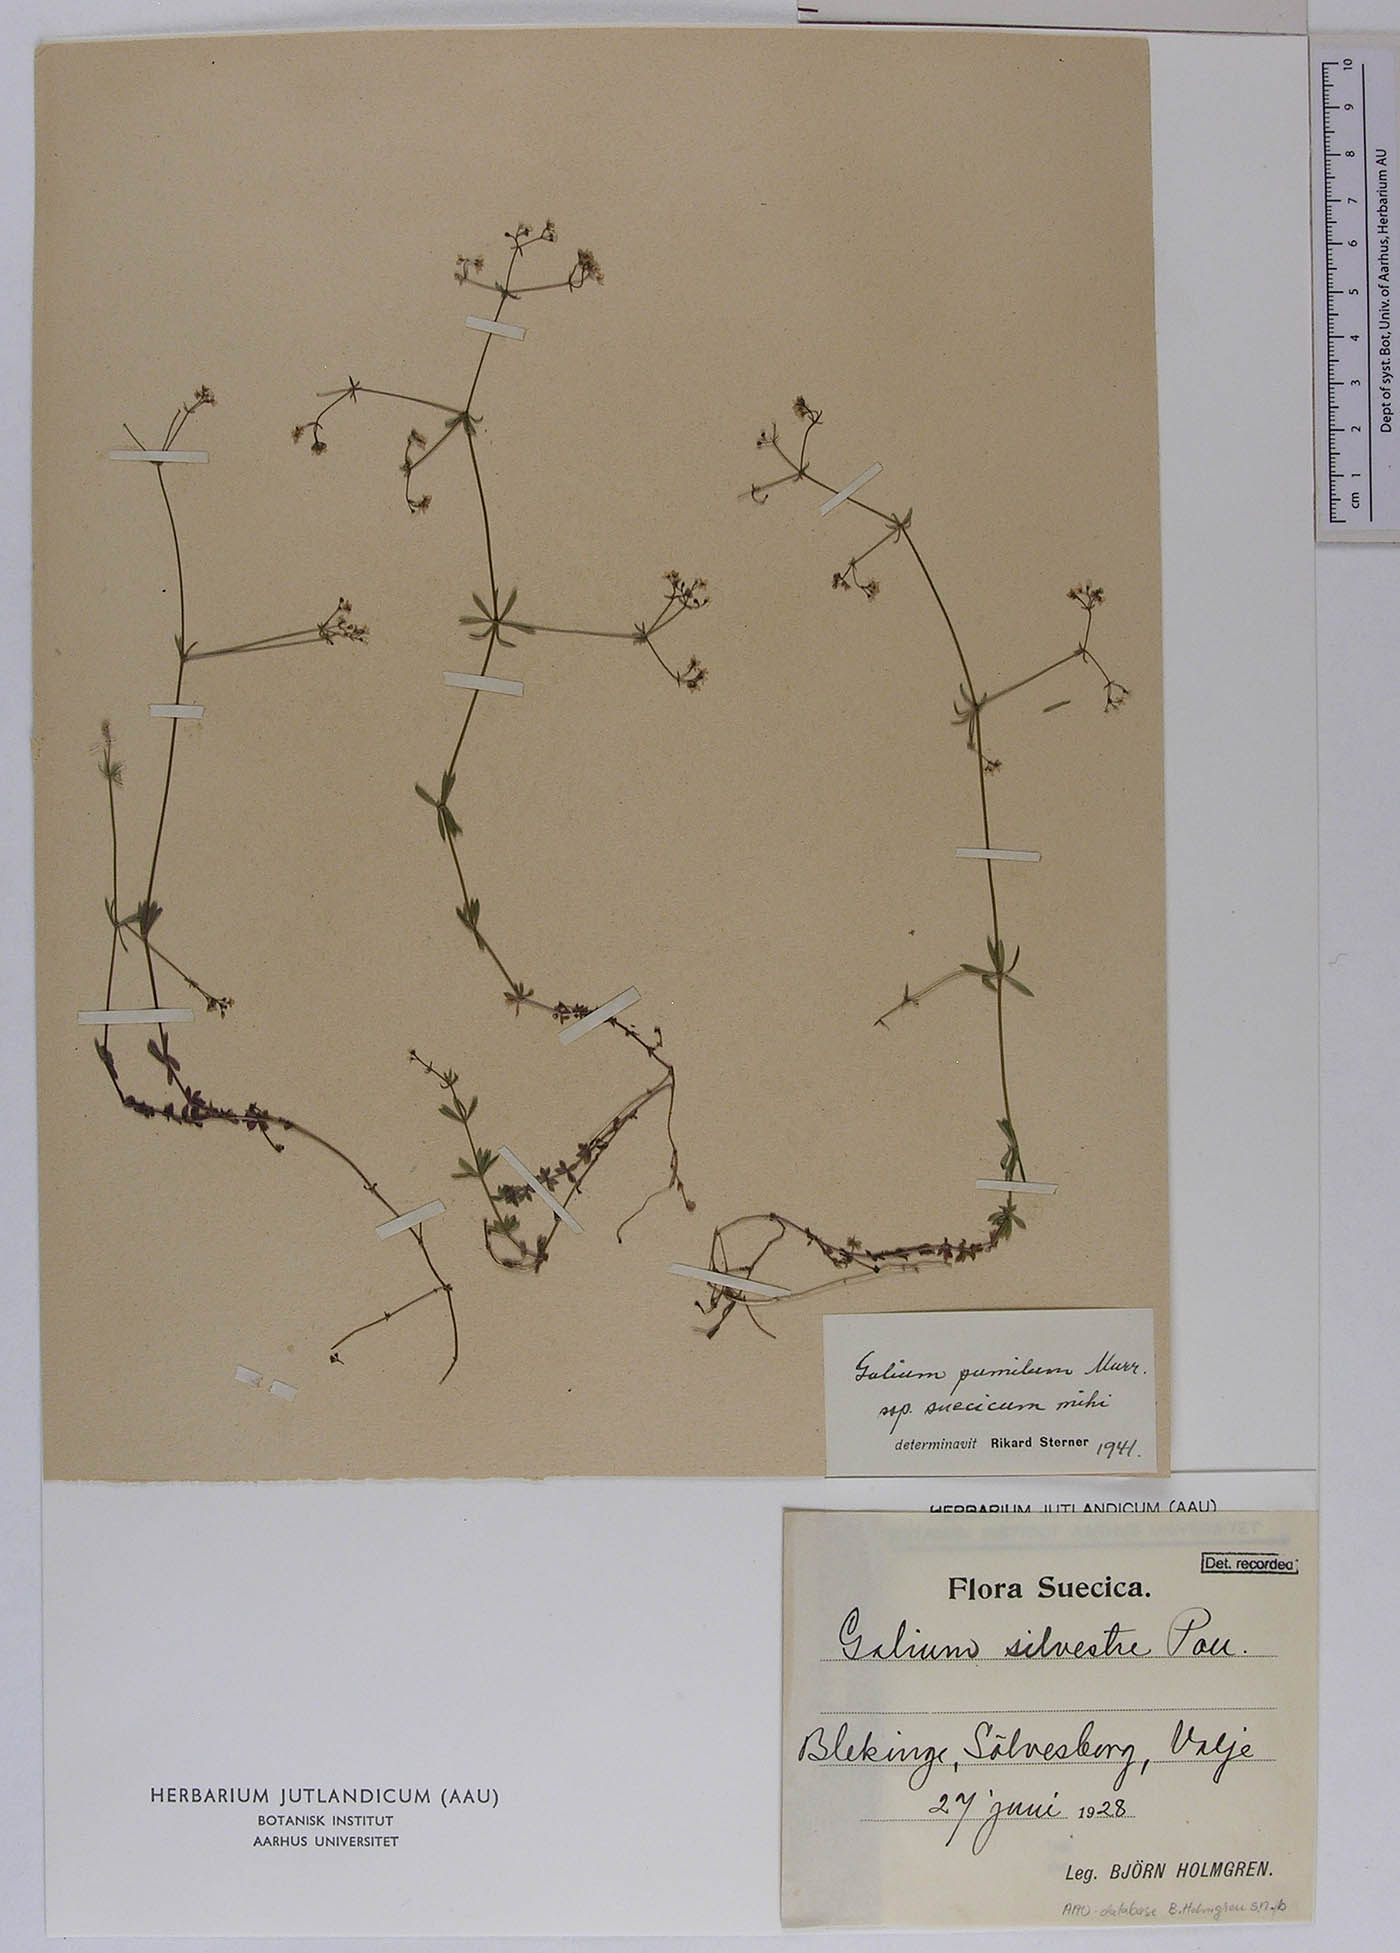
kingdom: Plantae
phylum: Tracheophyta
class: Magnoliopsida
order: Gentianales
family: Rubiaceae
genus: Galium
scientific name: Galium pusillum
